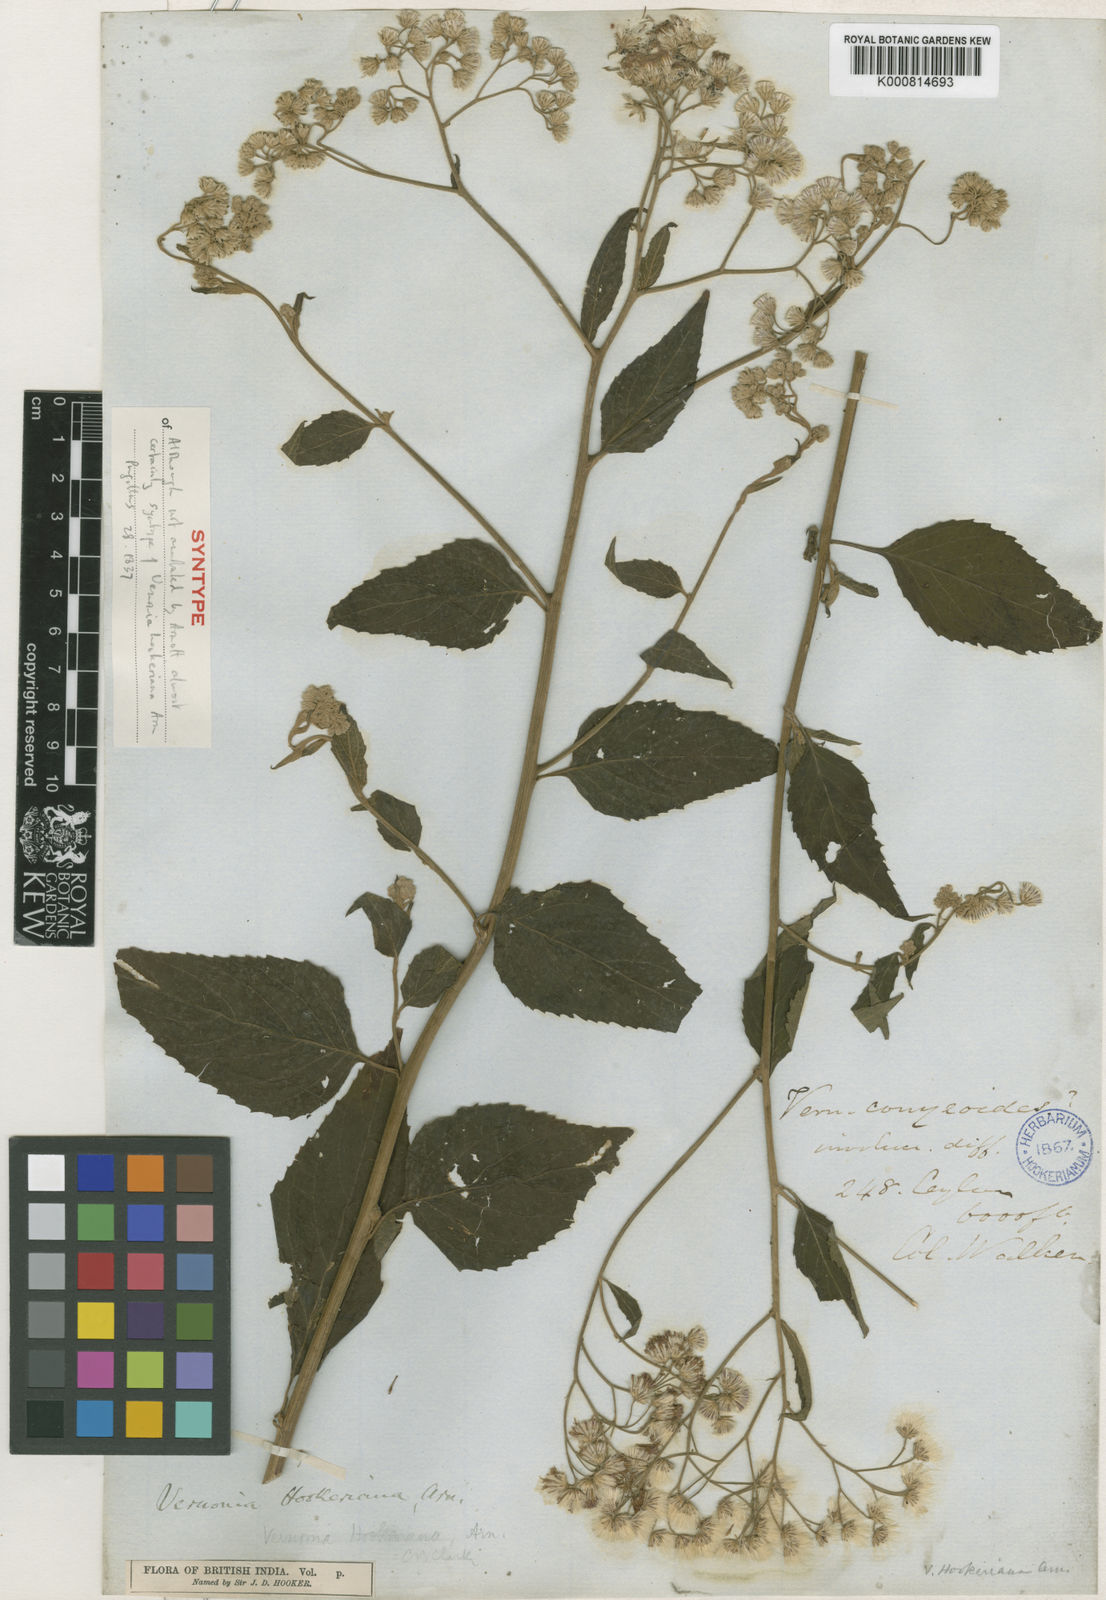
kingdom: Plantae
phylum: Tracheophyta
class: Magnoliopsida
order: Asterales
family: Asteraceae
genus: Cyanthillium
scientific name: Cyanthillium hookerianum
